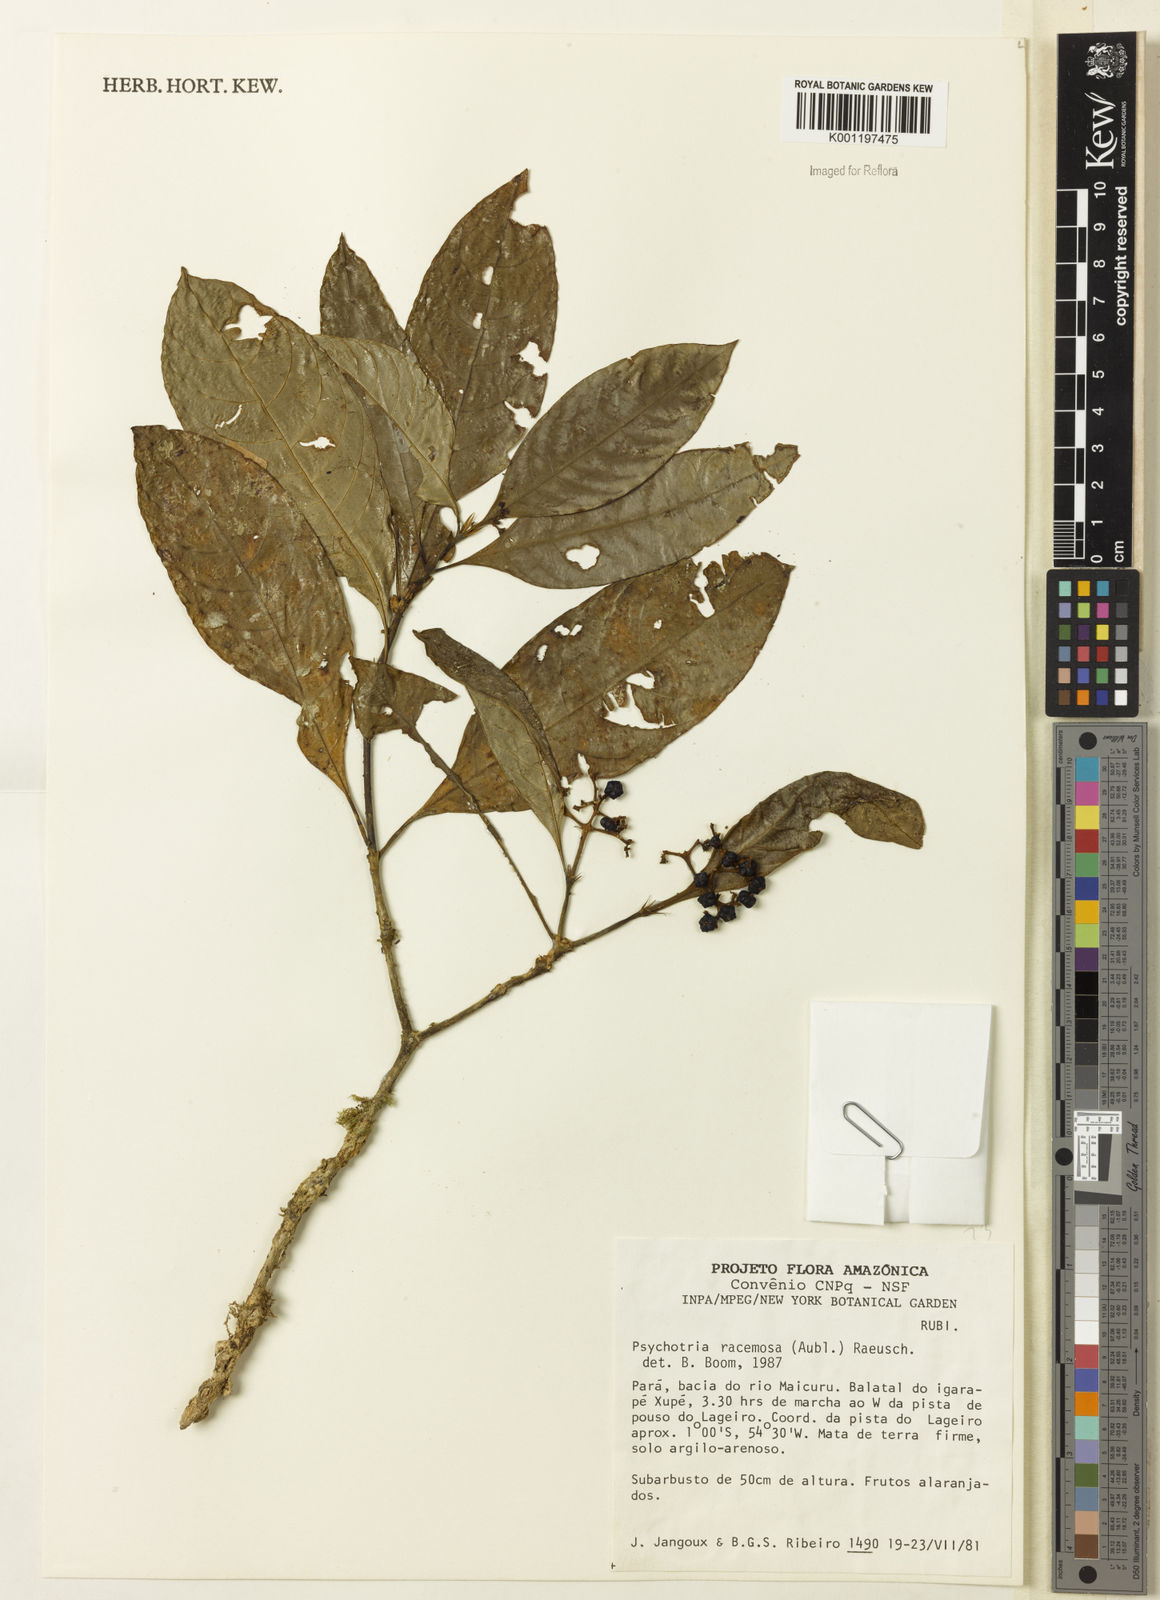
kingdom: Plantae
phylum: Tracheophyta
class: Magnoliopsida
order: Gentianales
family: Rubiaceae
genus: Palicourea
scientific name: Palicourea racemosa
